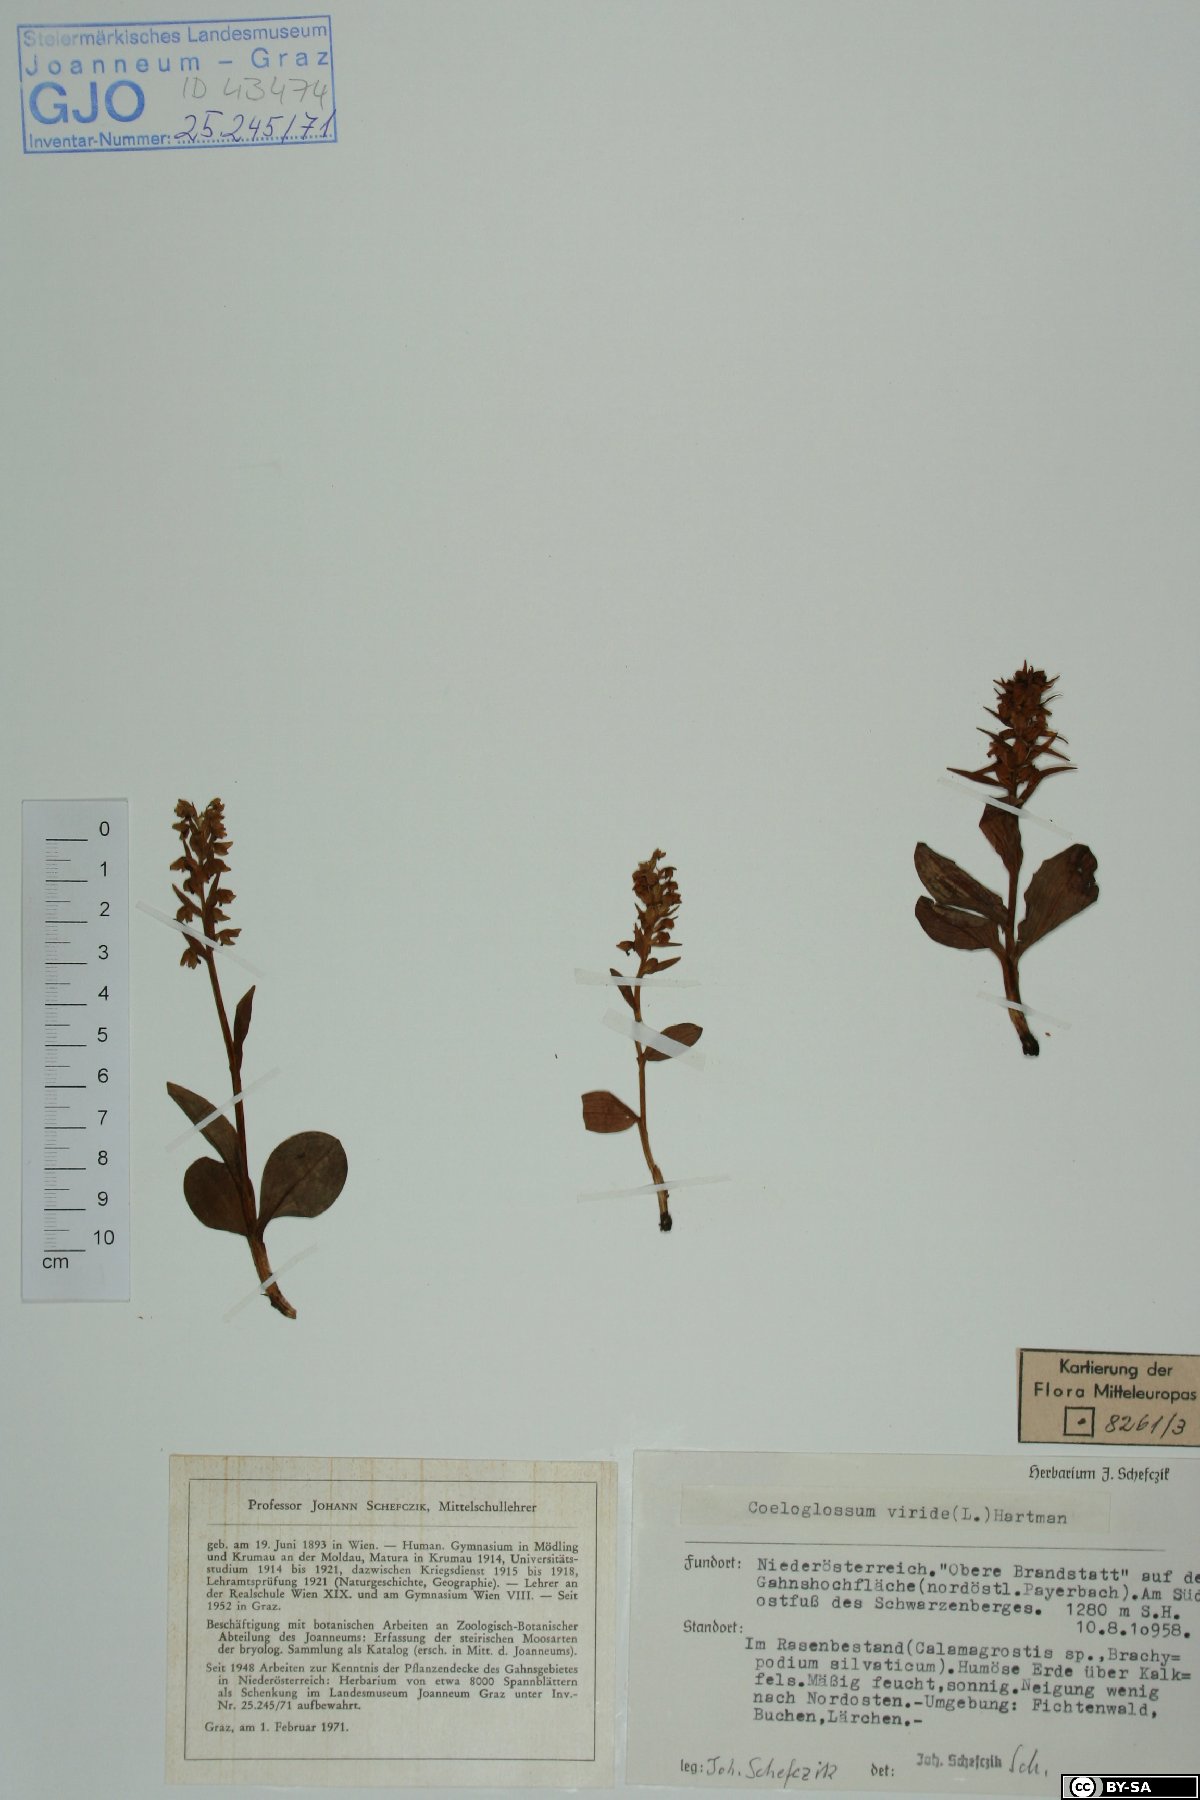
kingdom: Plantae
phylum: Tracheophyta
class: Liliopsida
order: Asparagales
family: Orchidaceae
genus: Dactylorhiza
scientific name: Dactylorhiza viridis
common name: Longbract frog orchid
